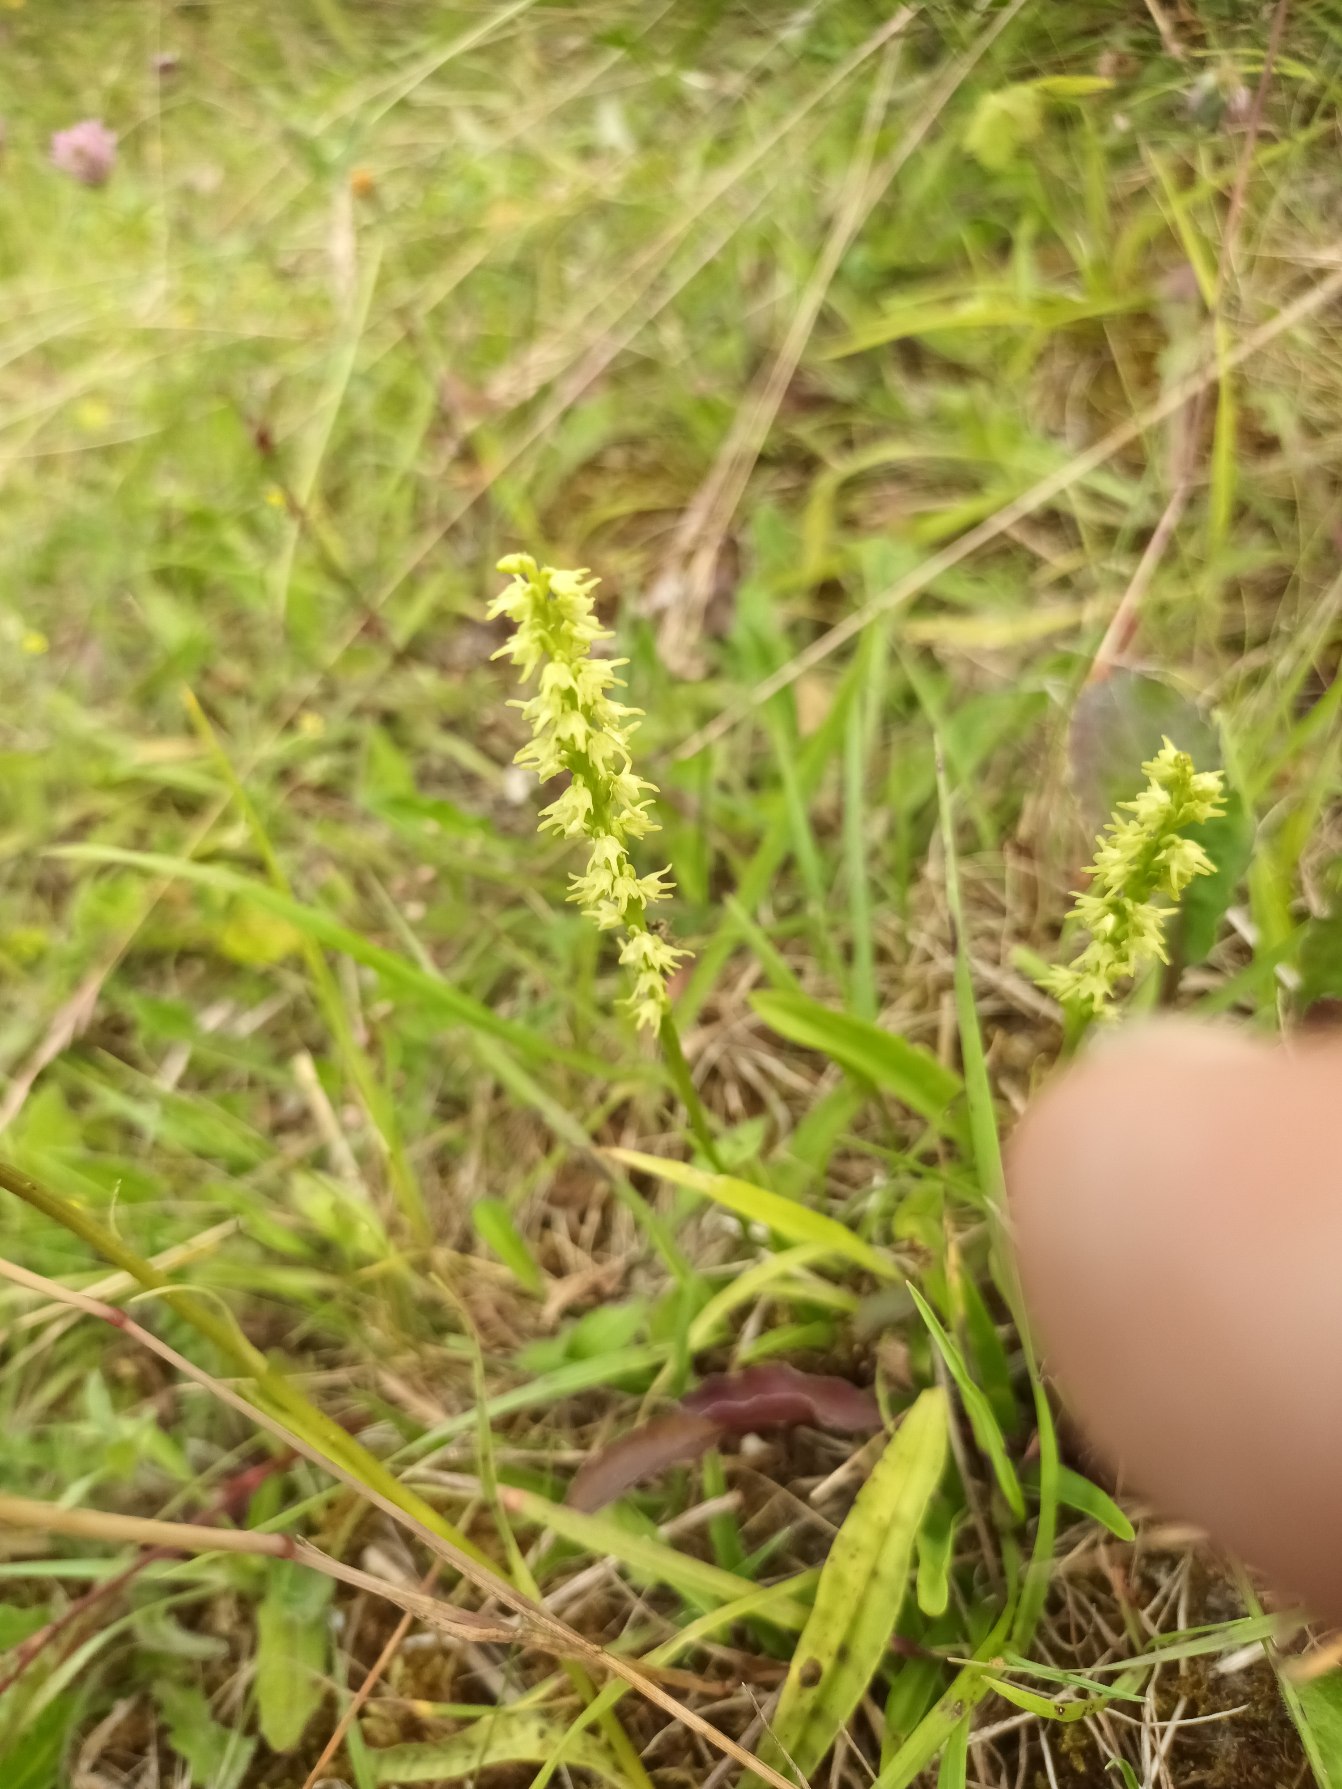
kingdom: Plantae
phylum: Tracheophyta
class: Liliopsida
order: Asparagales
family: Orchidaceae
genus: Herminium
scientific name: Herminium monorchis
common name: Pukkellæbe
